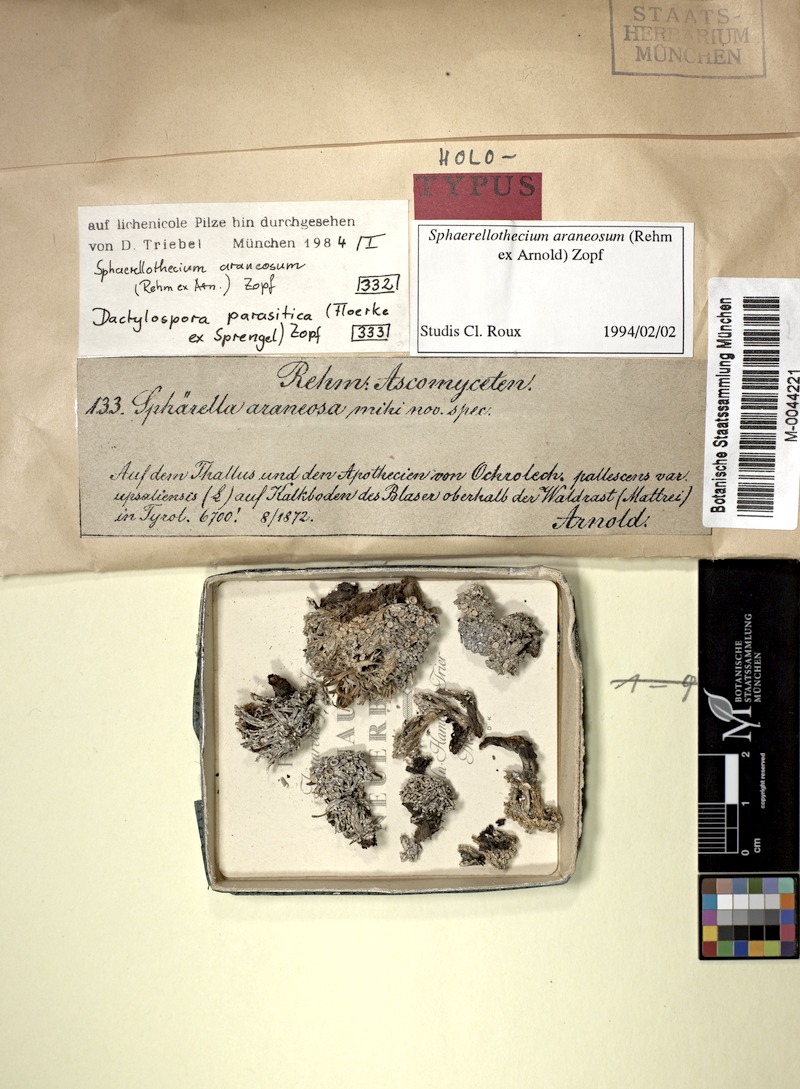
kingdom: Fungi
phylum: Ascomycota
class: Lecanoromycetes
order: Lecanorales
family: Dactylosporaceae
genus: Dactylospora
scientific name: Dactylospora parasitica
